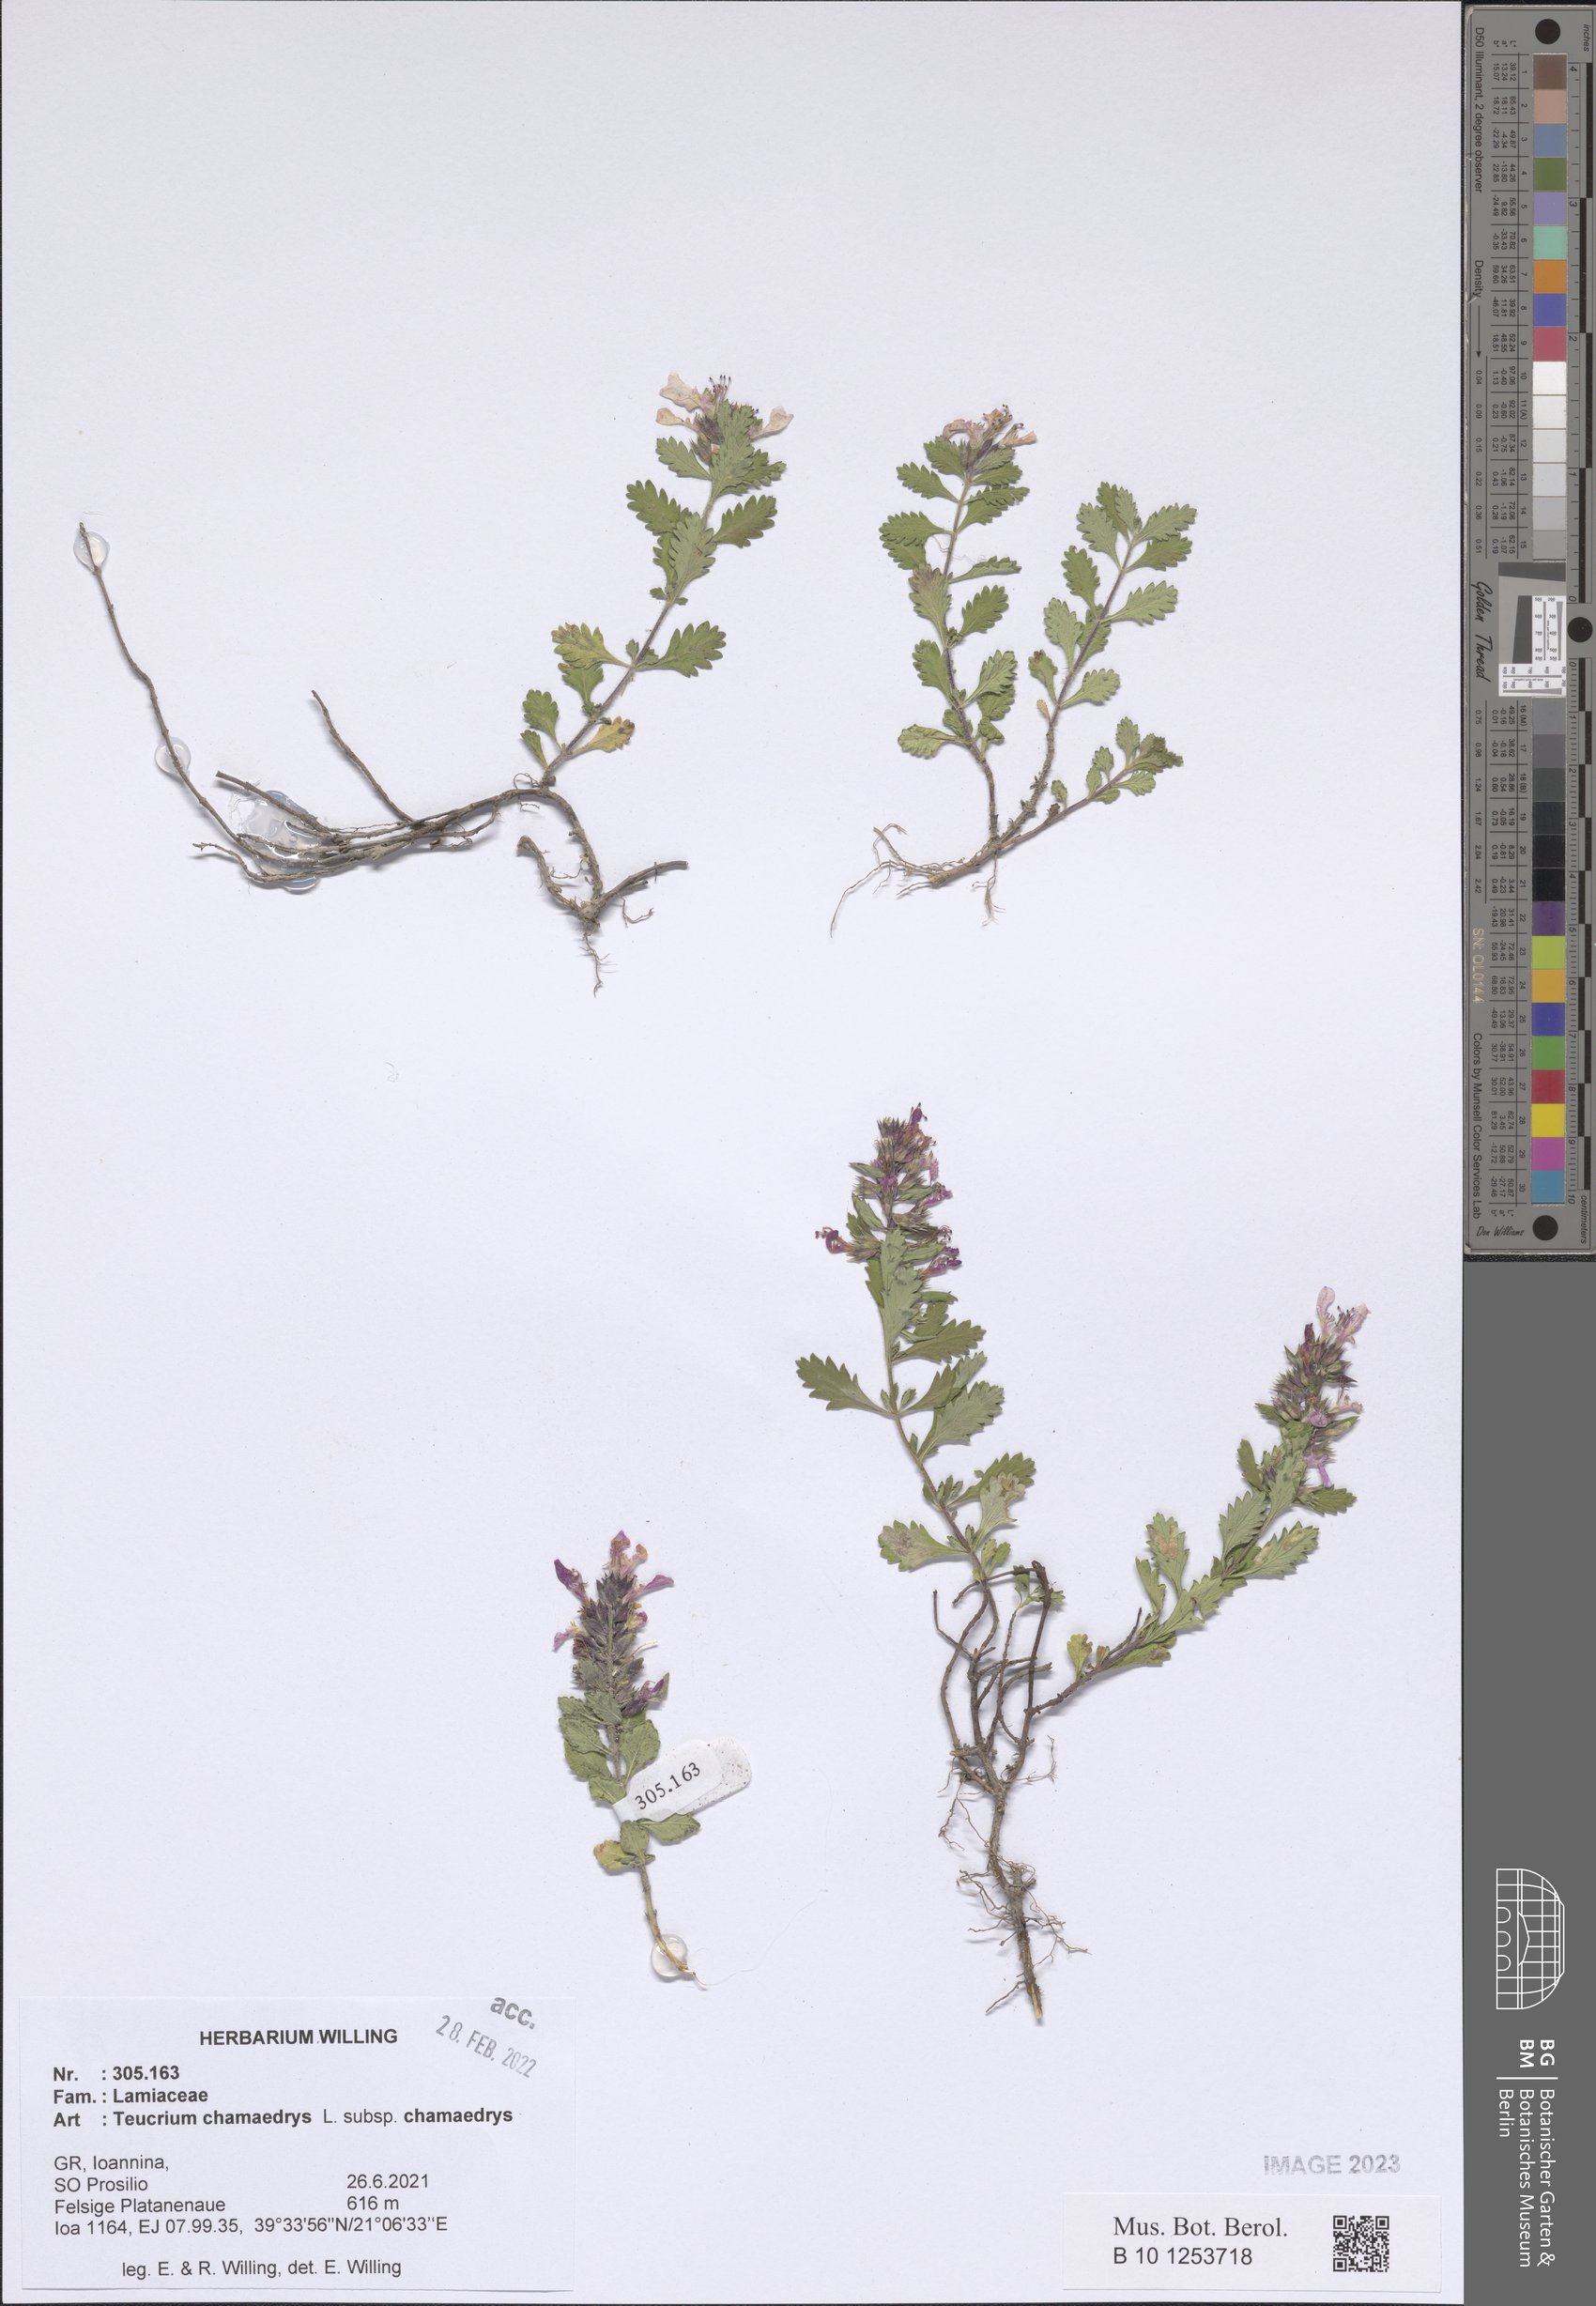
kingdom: Plantae
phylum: Tracheophyta
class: Magnoliopsida
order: Lamiales
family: Lamiaceae
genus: Teucrium
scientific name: Teucrium chamaedrys
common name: Wall germander
